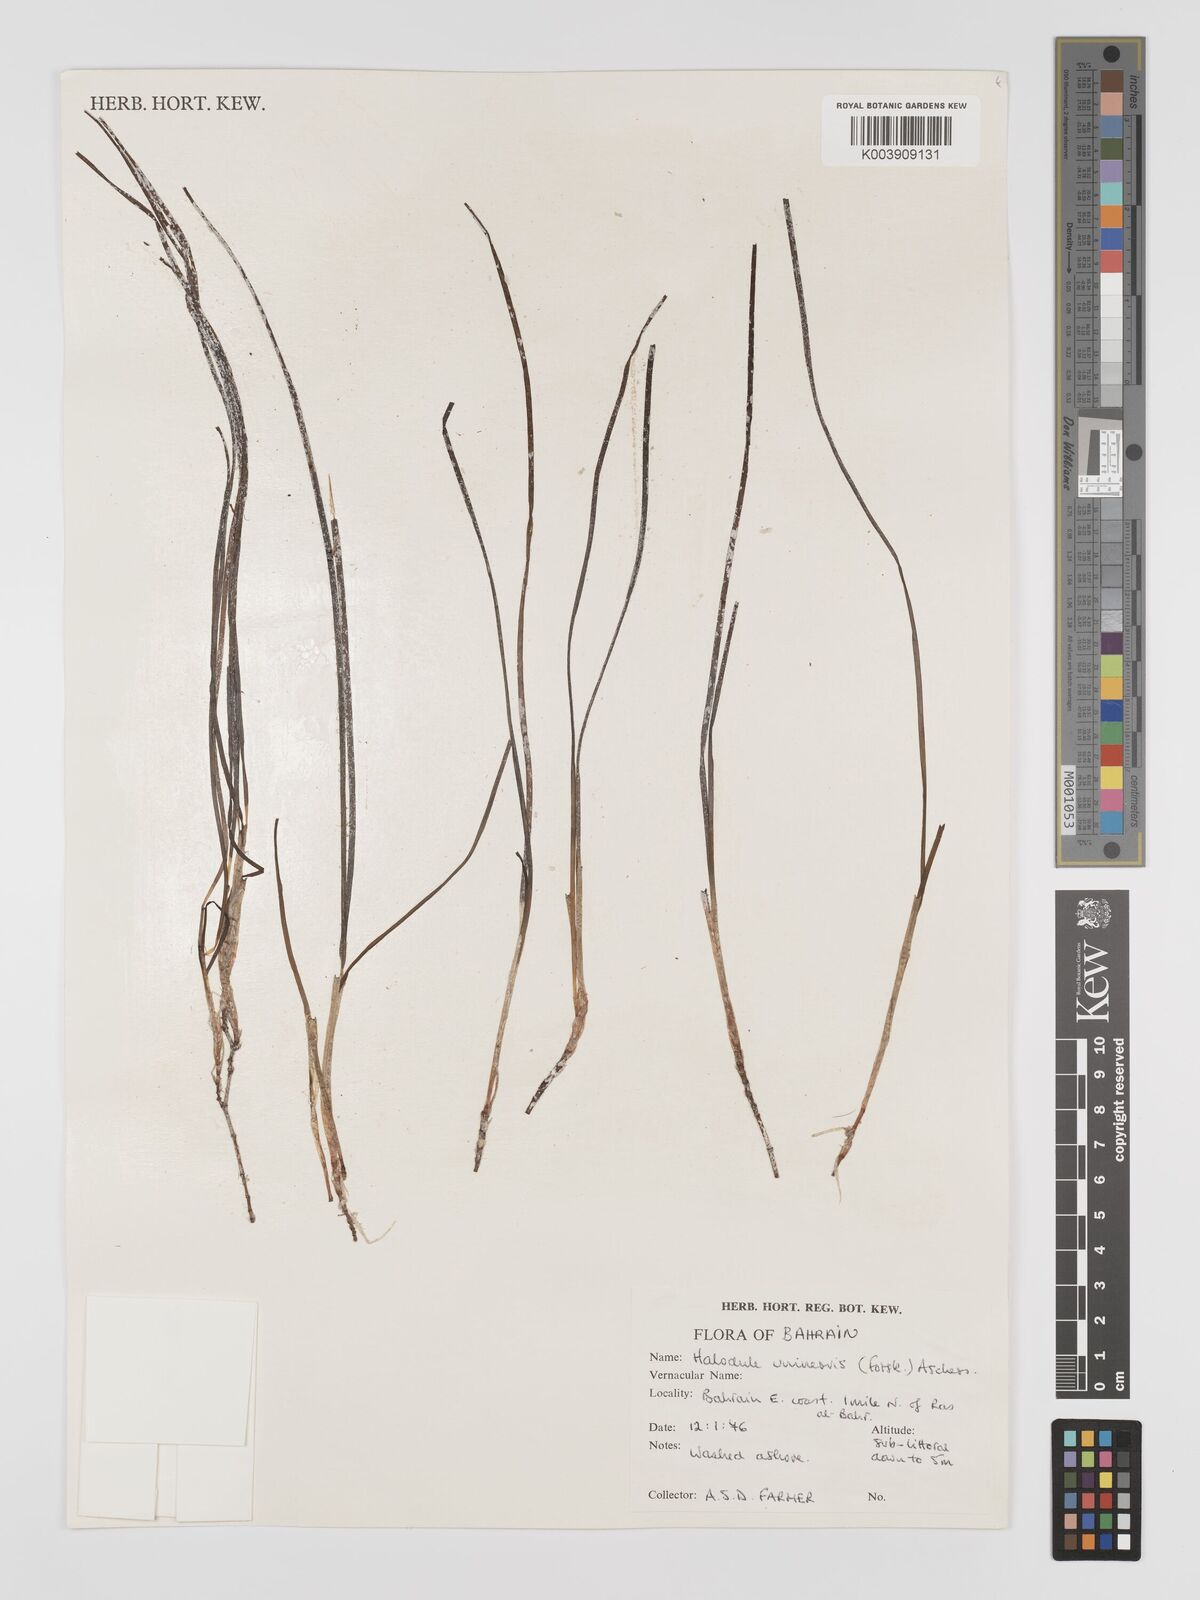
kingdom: Plantae
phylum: Tracheophyta
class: Liliopsida
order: Alismatales
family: Cymodoceaceae
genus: Halodule
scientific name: Halodule uninervis
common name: Narrowleaf seagrass
